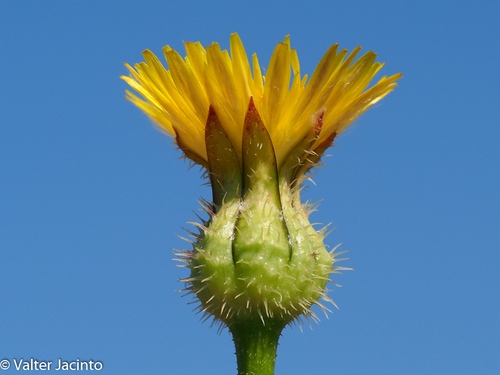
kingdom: Plantae
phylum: Tracheophyta
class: Magnoliopsida
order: Asterales
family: Asteraceae
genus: Urospermum
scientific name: Urospermum picroides
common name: False hawkbit
